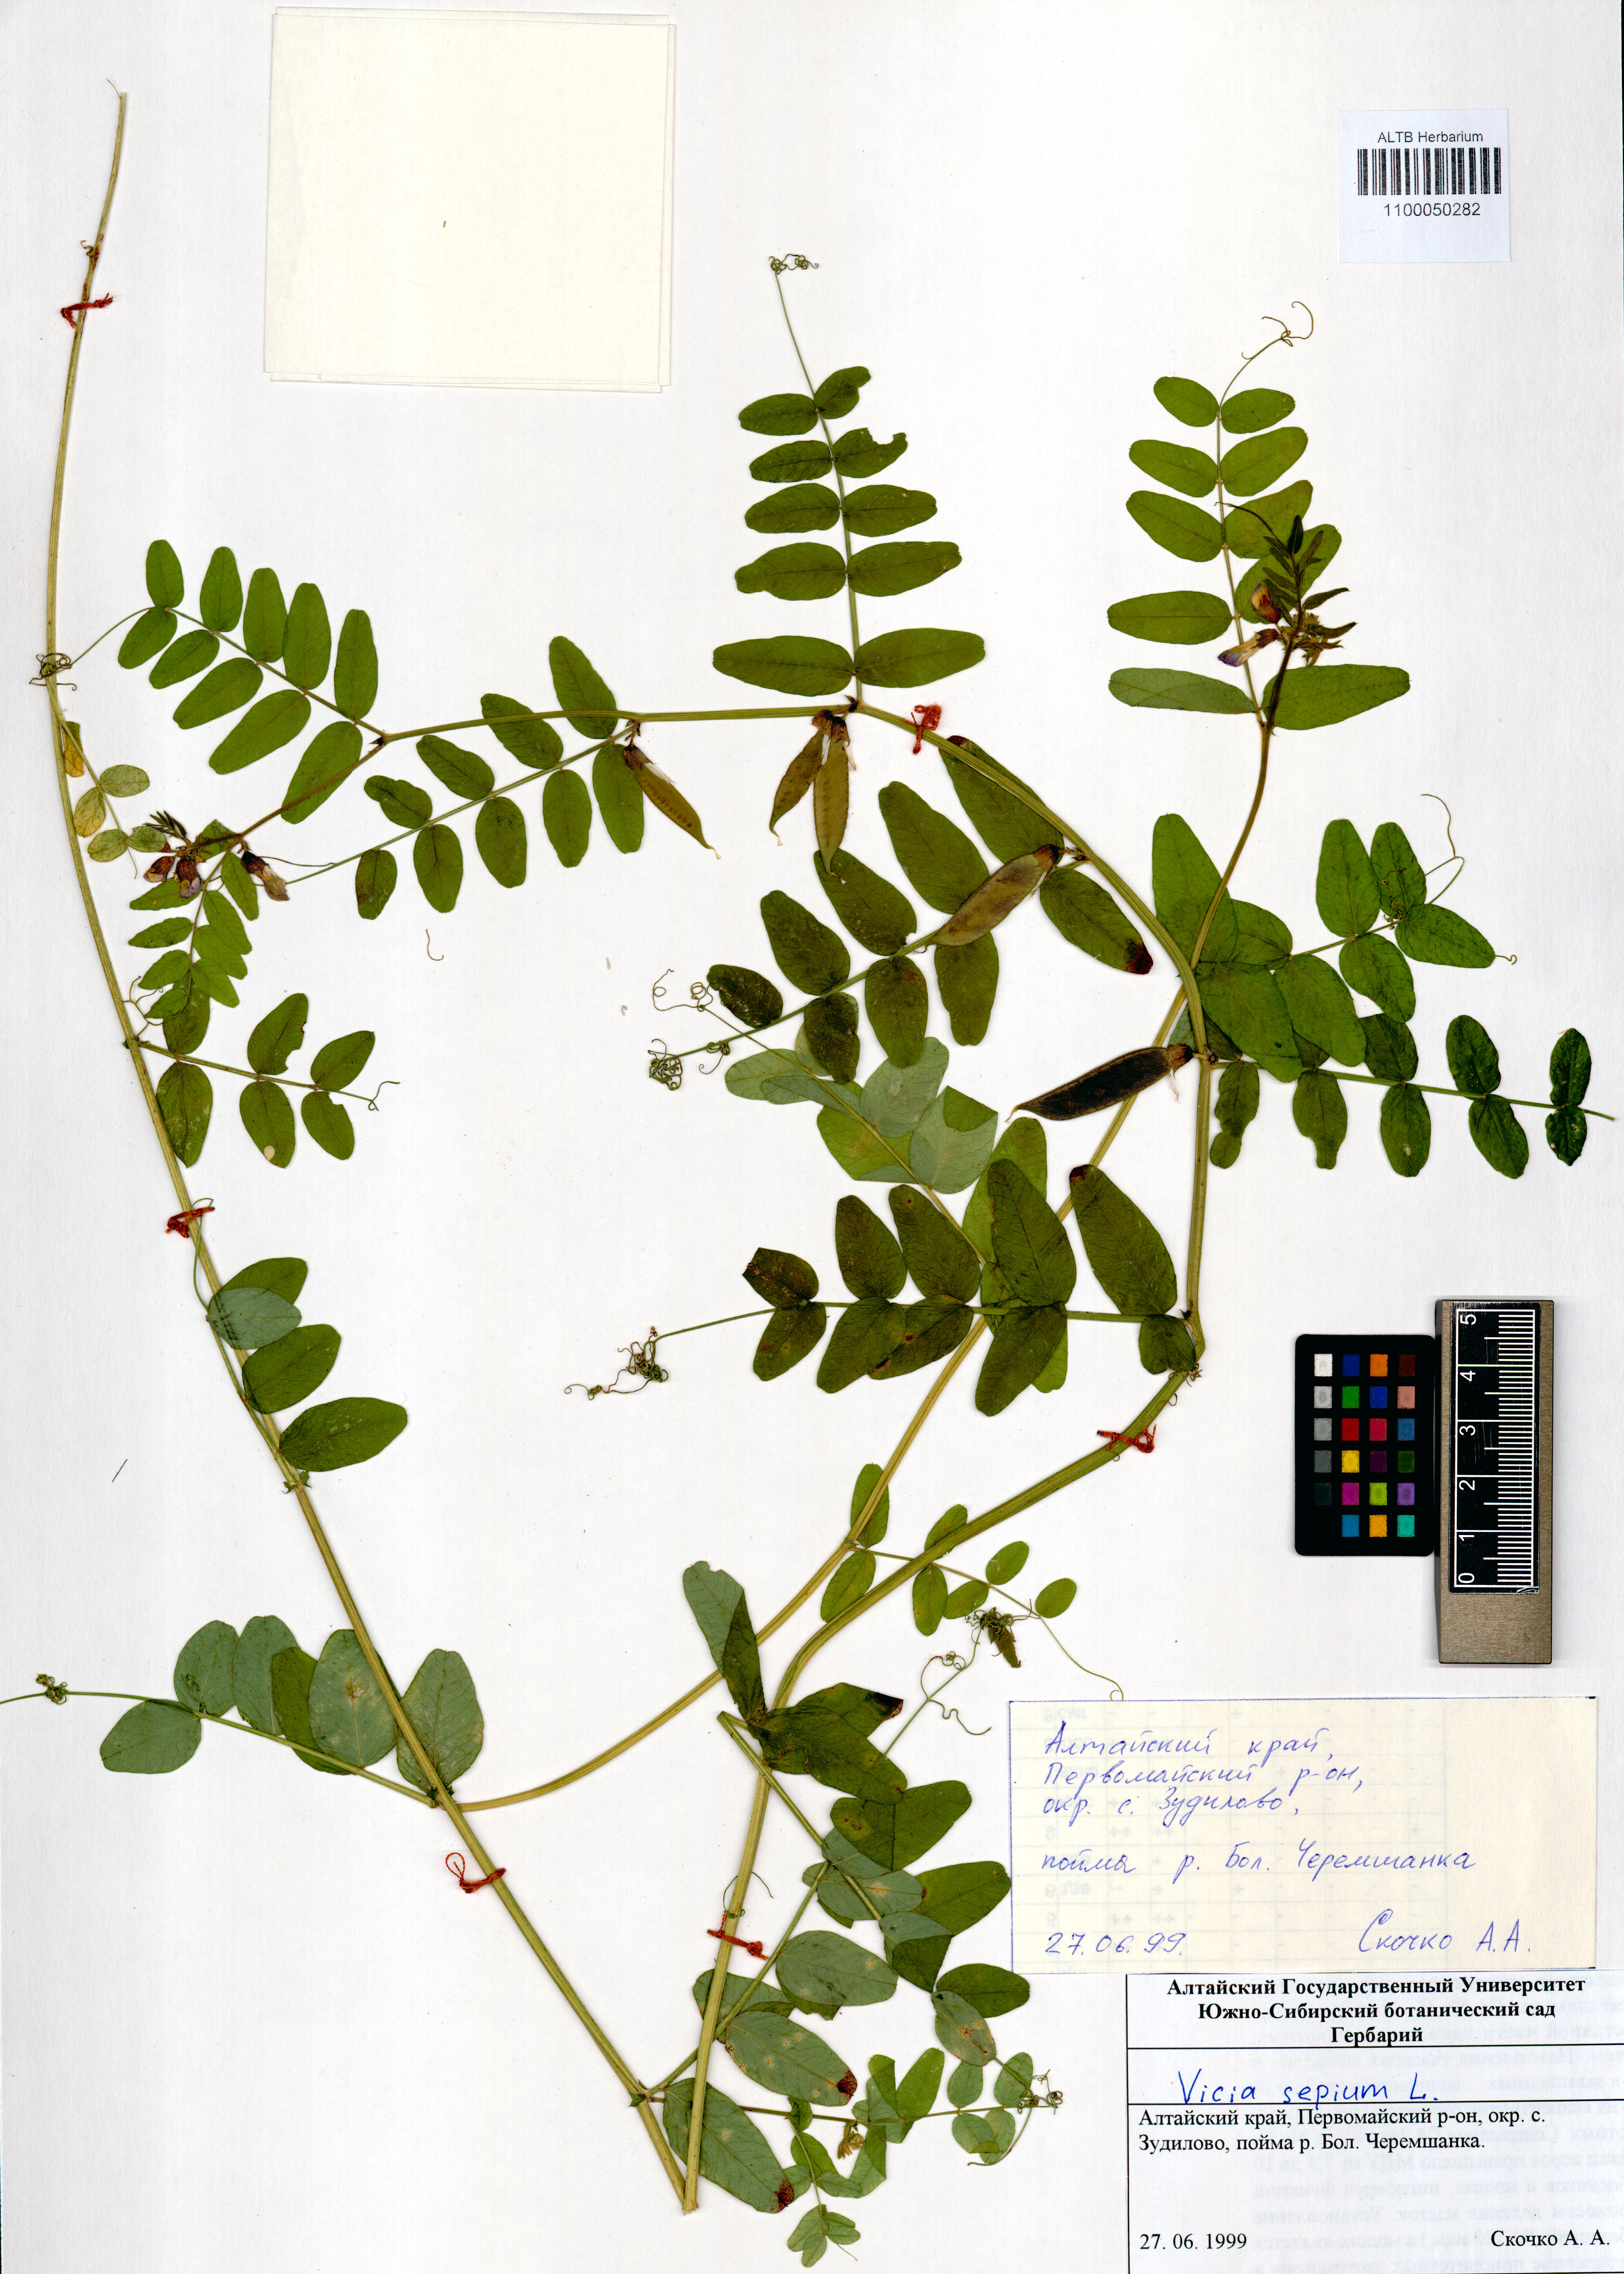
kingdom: Plantae
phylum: Tracheophyta
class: Magnoliopsida
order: Fabales
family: Fabaceae
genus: Vicia
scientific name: Vicia sepium
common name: Bush vetch
